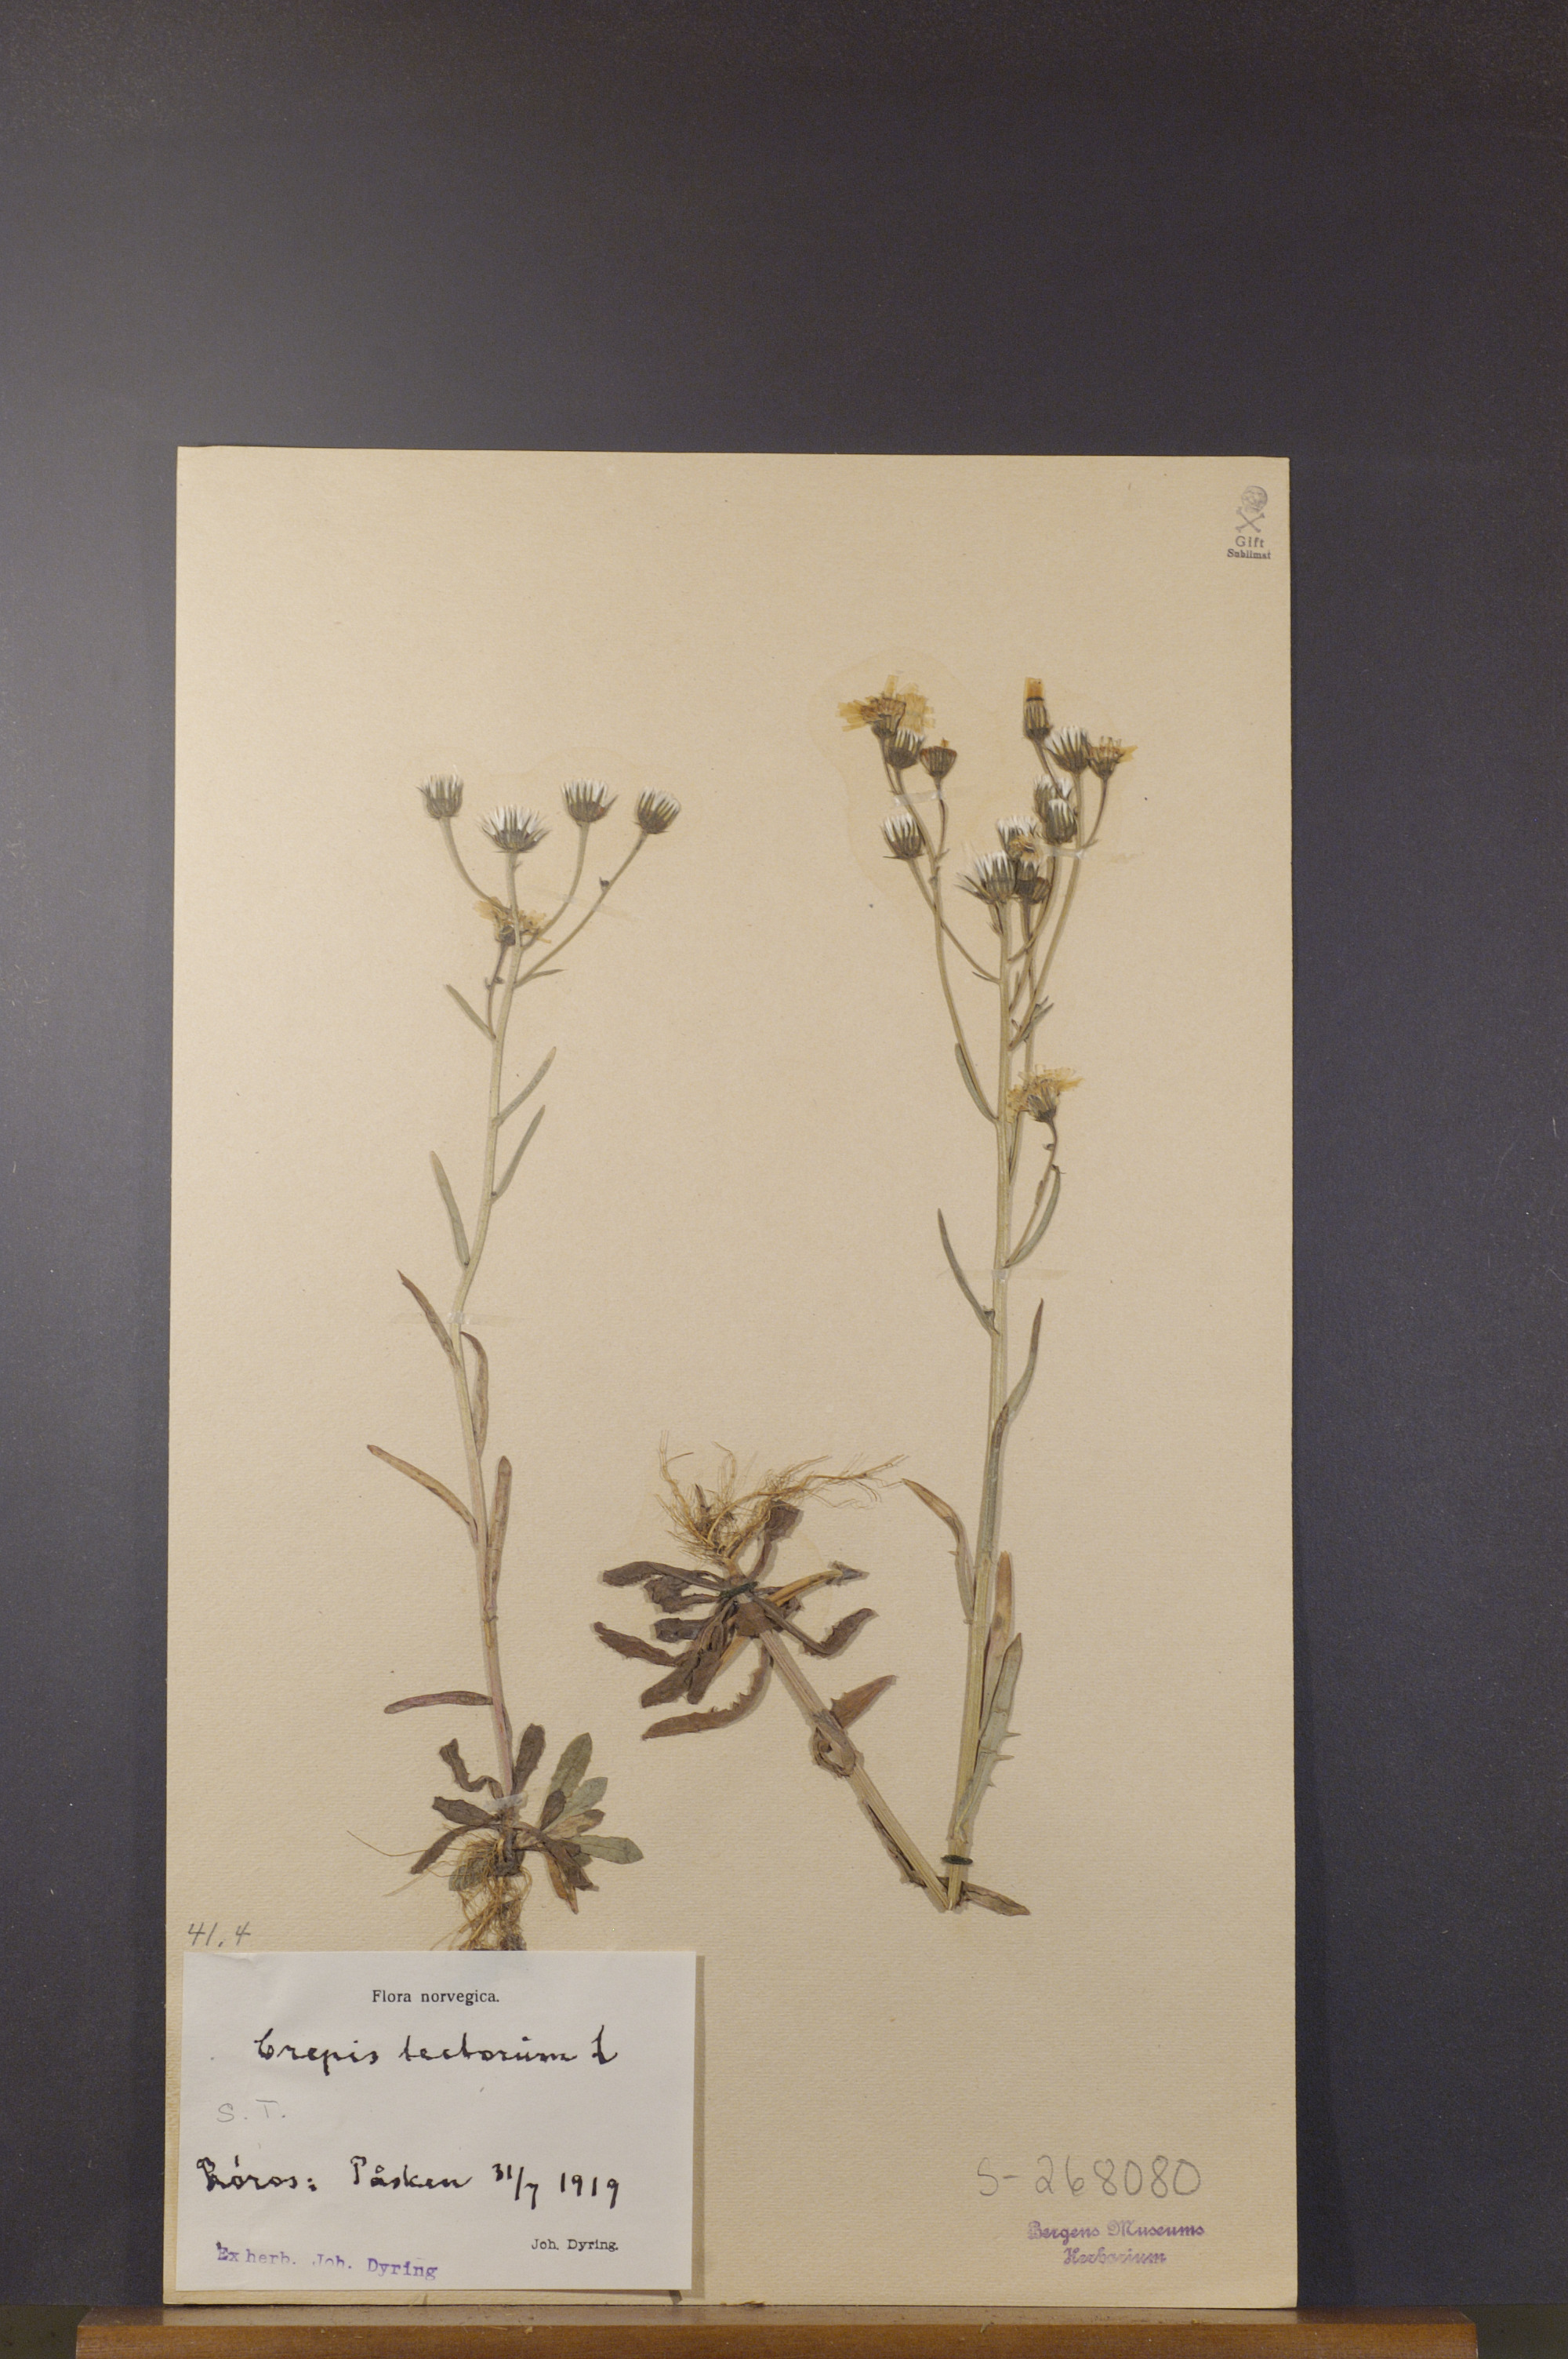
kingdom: Plantae
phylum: Tracheophyta
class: Magnoliopsida
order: Asterales
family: Asteraceae
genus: Crepis
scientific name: Crepis tectorum
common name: Narrow-leaved hawk's-beard
